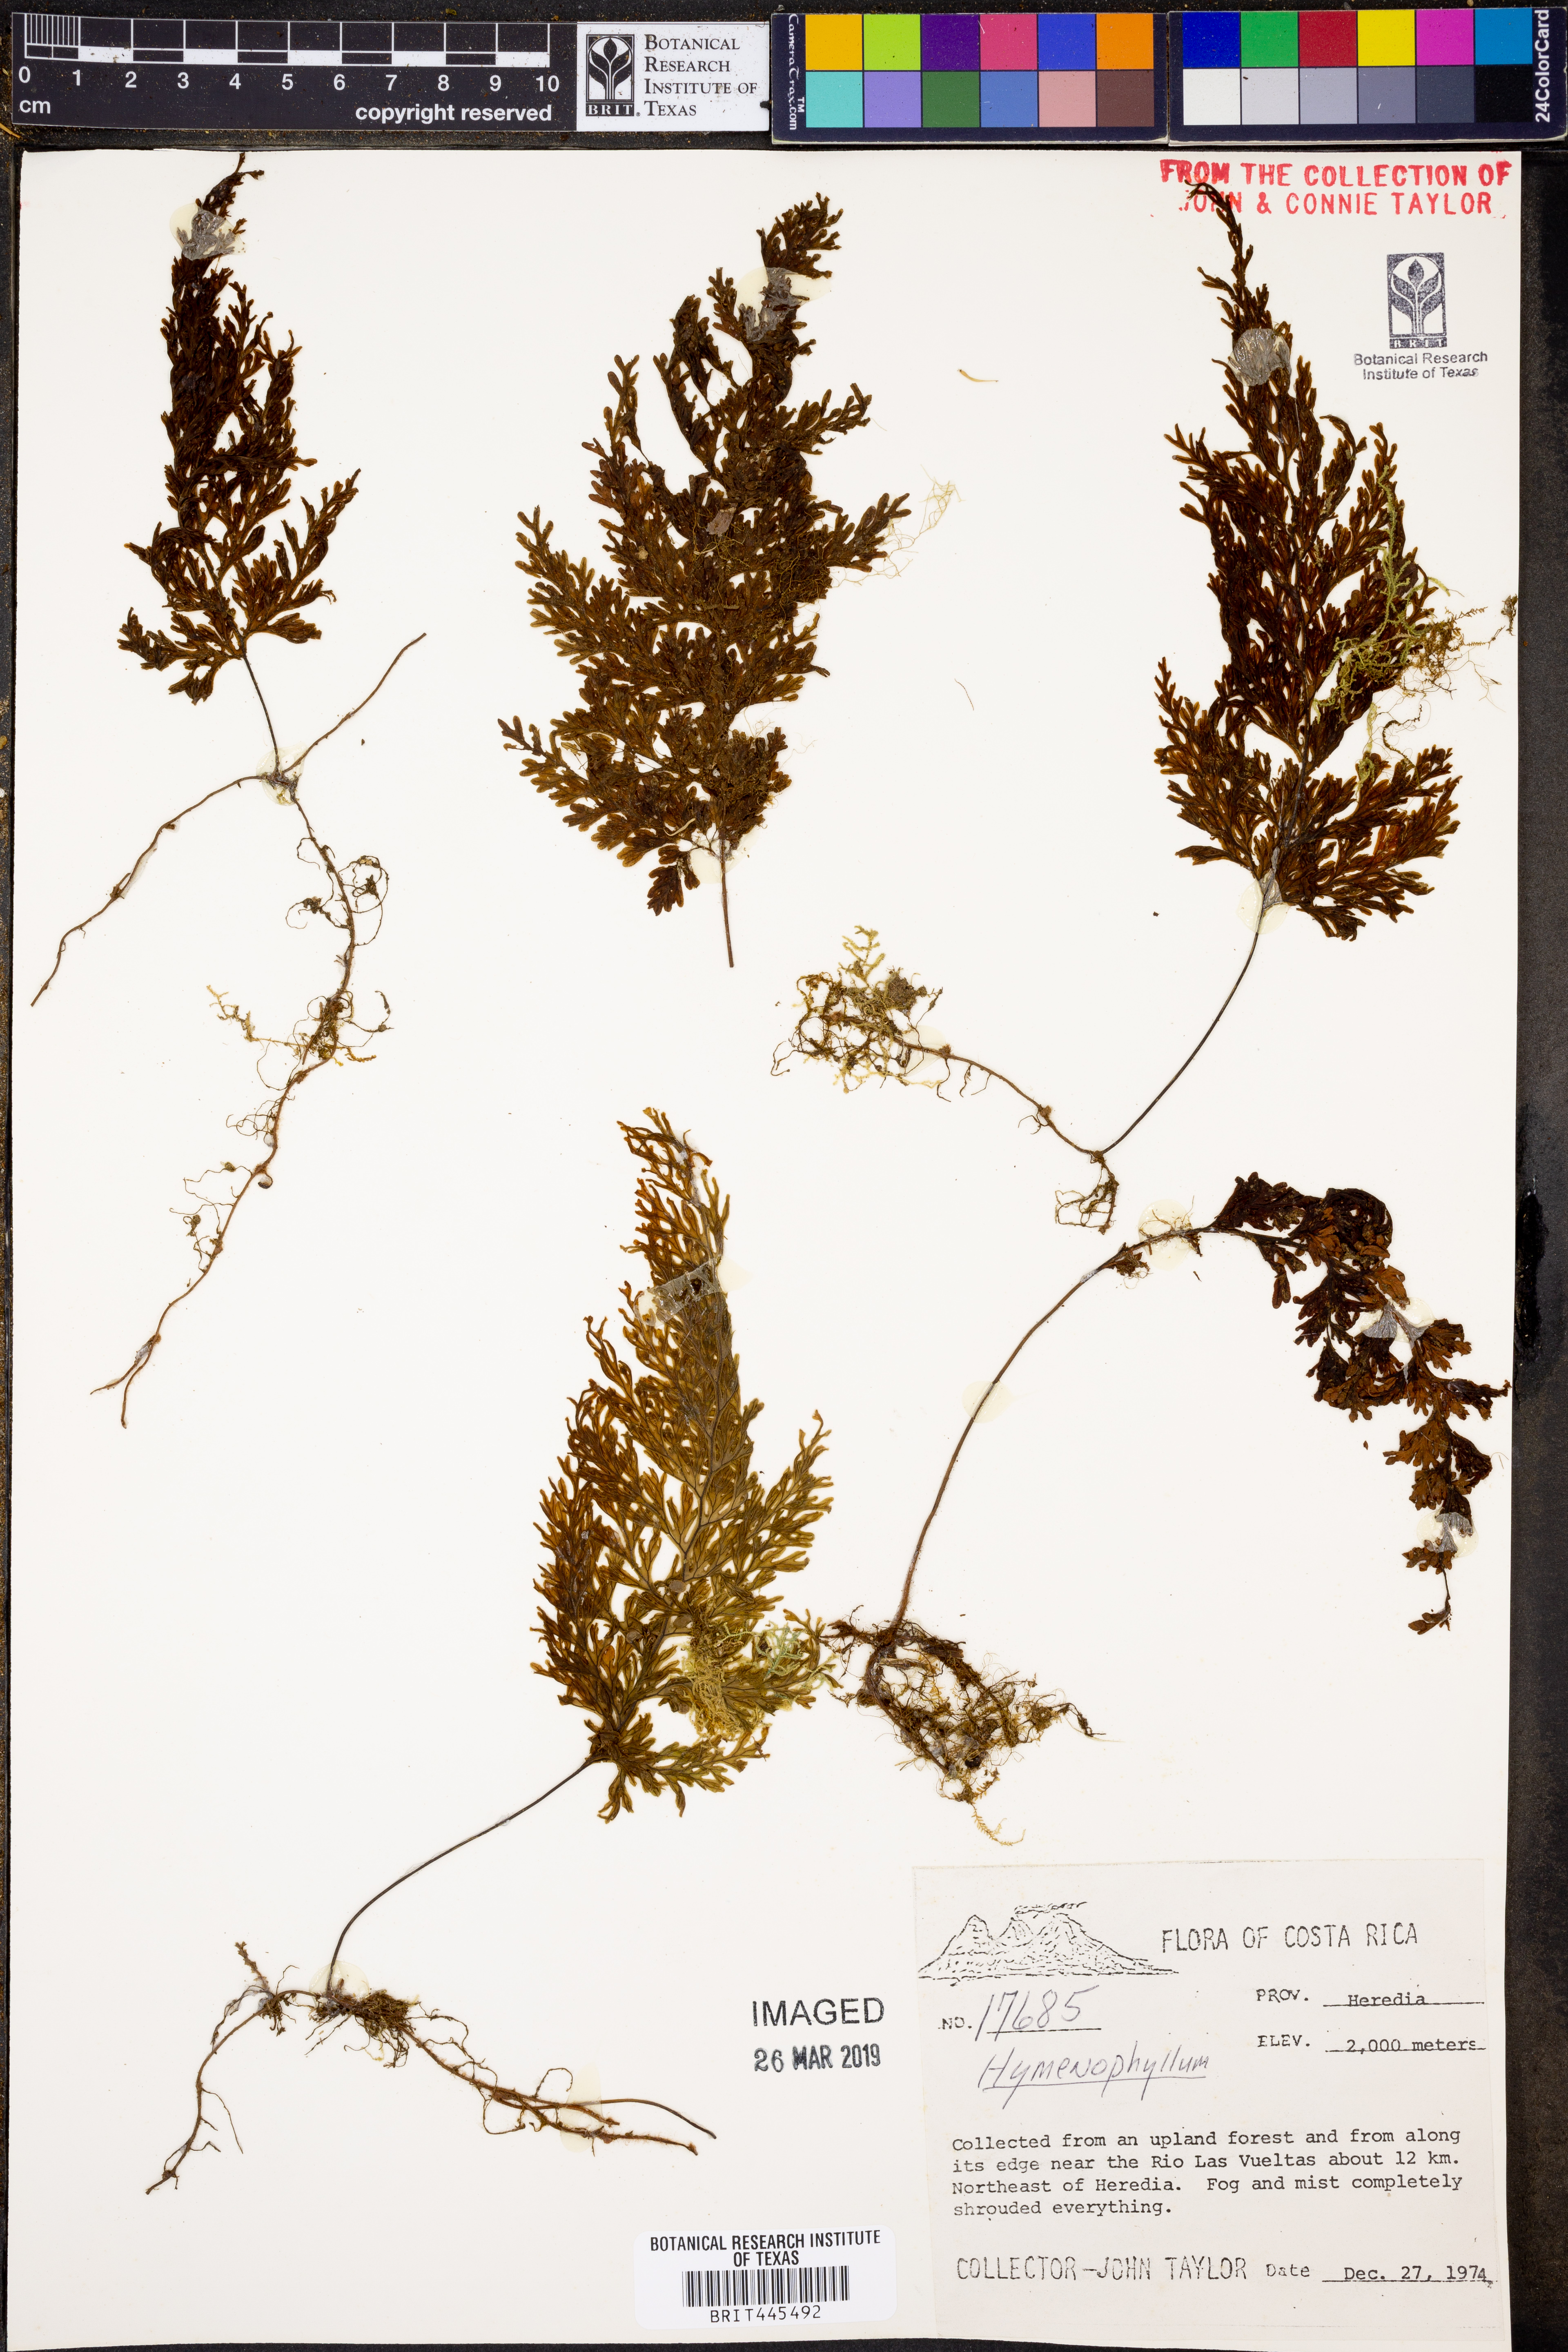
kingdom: Plantae
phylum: Tracheophyta
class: Polypodiopsida
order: Hymenophyllales
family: Hymenophyllaceae
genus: Hymenophyllum
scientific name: Hymenophyllum
